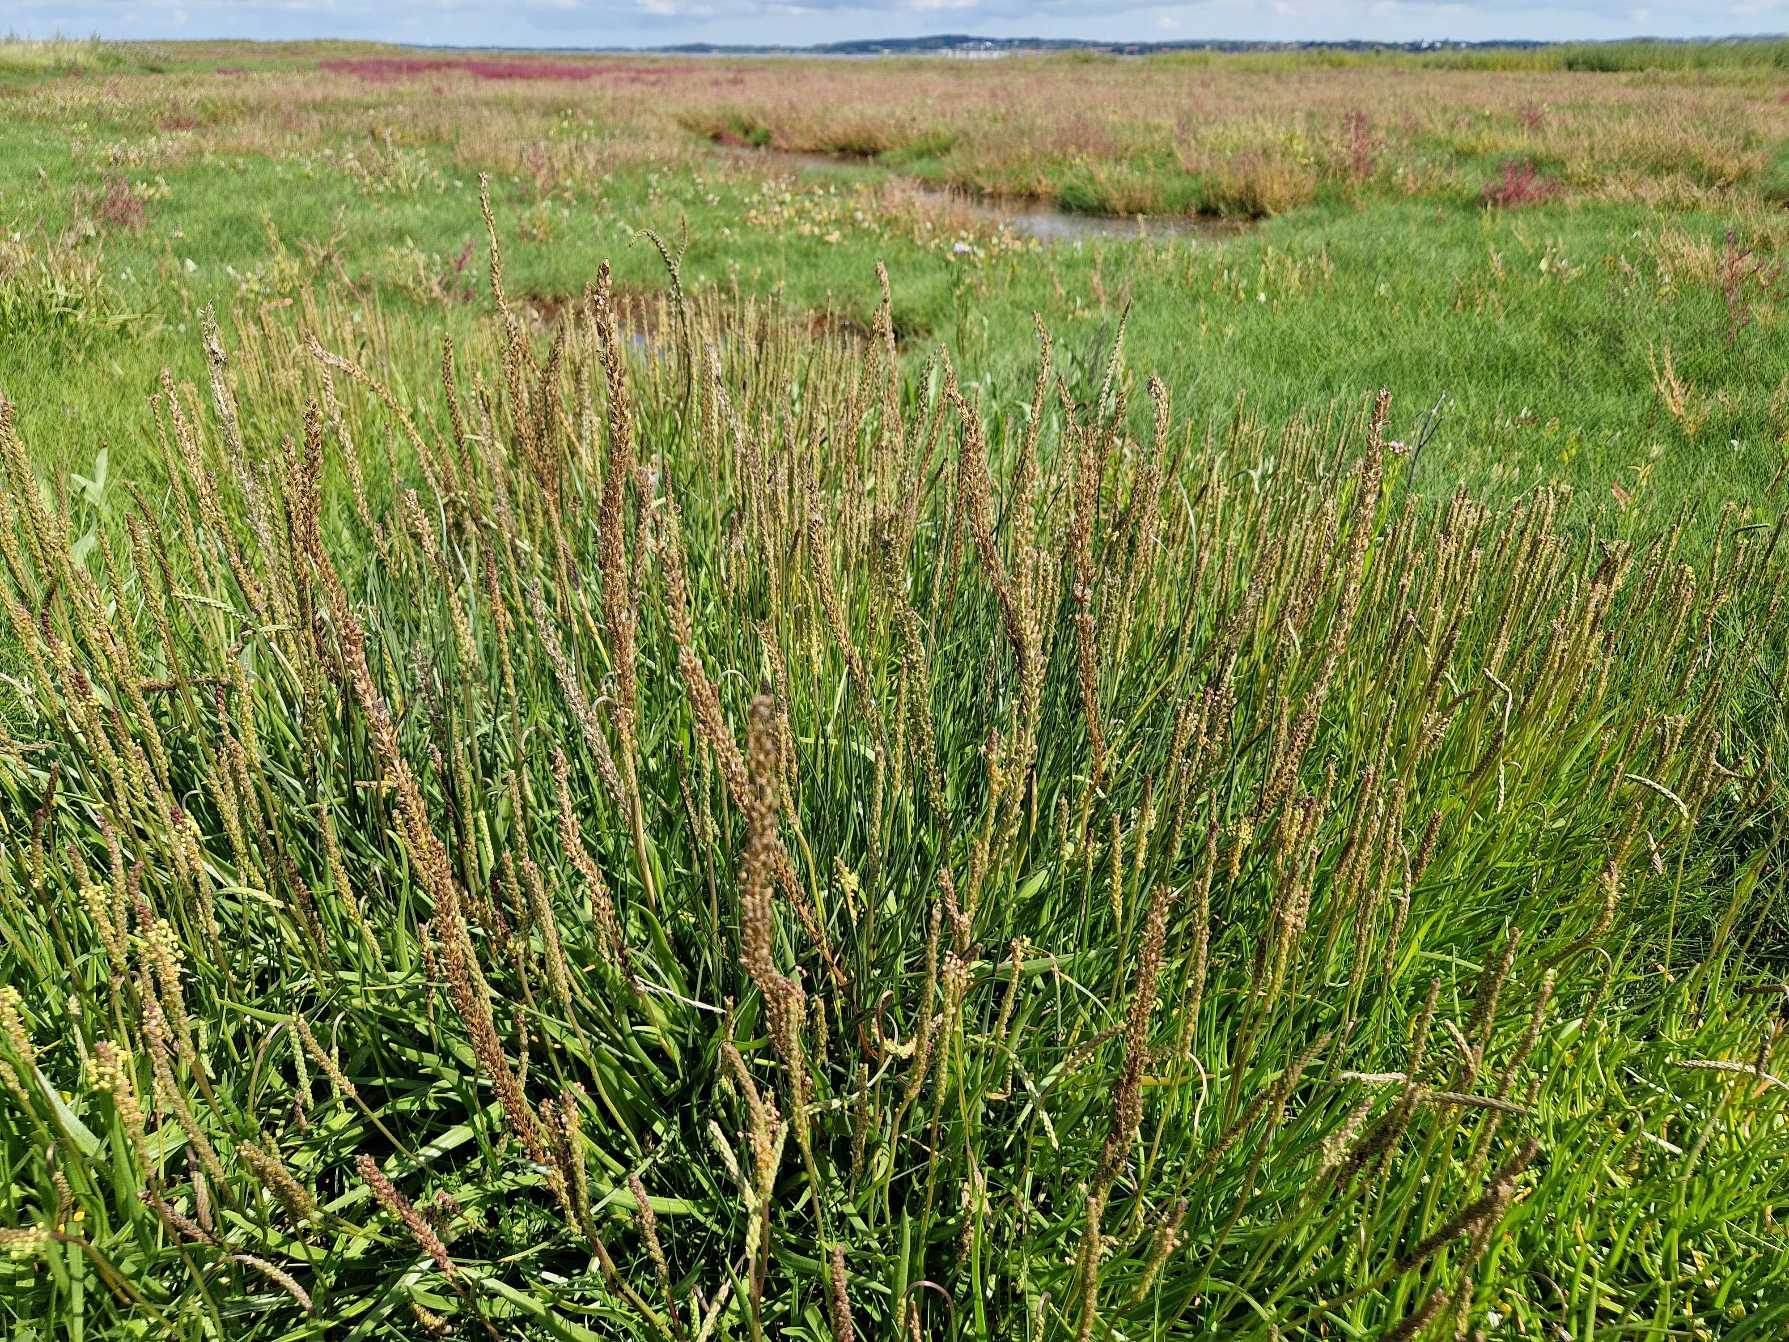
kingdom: Plantae
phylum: Tracheophyta
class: Liliopsida
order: Alismatales
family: Juncaginaceae
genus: Triglochin
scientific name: Triglochin maritima
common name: Strand-trehage
